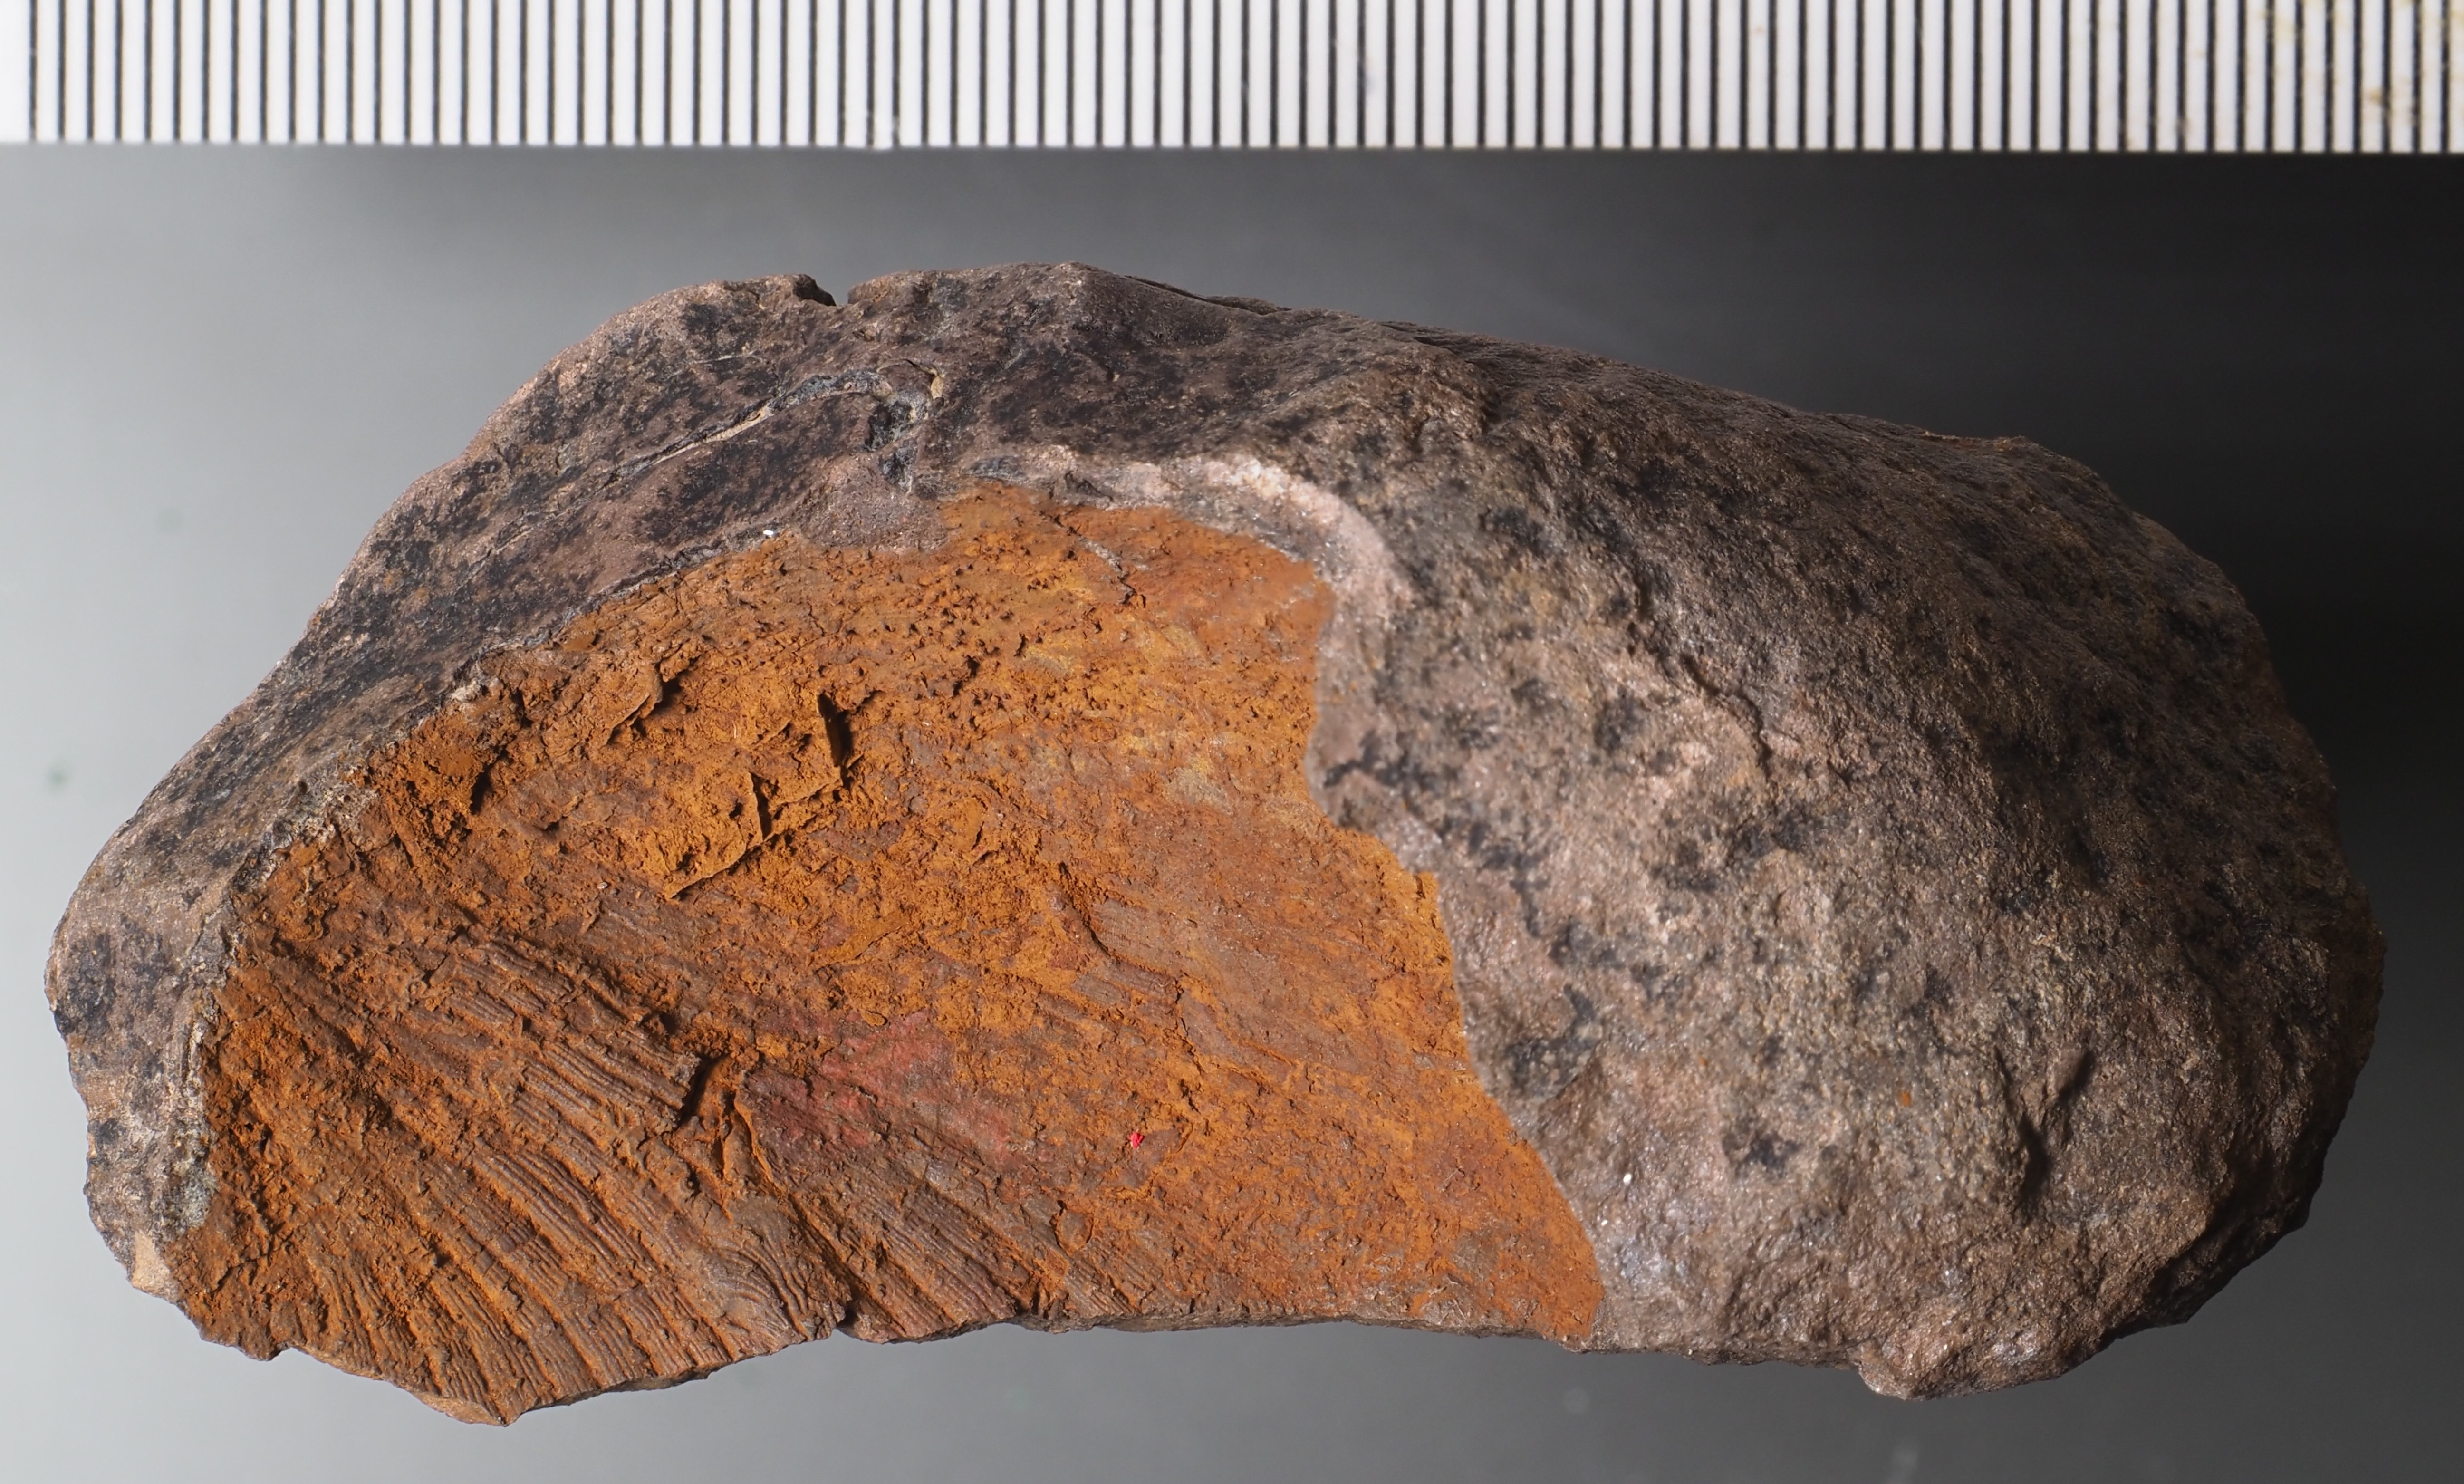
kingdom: Animalia
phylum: Brachiopoda
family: Strophodontidae
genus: Fascistropheodonta
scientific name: Fascistropheodonta
